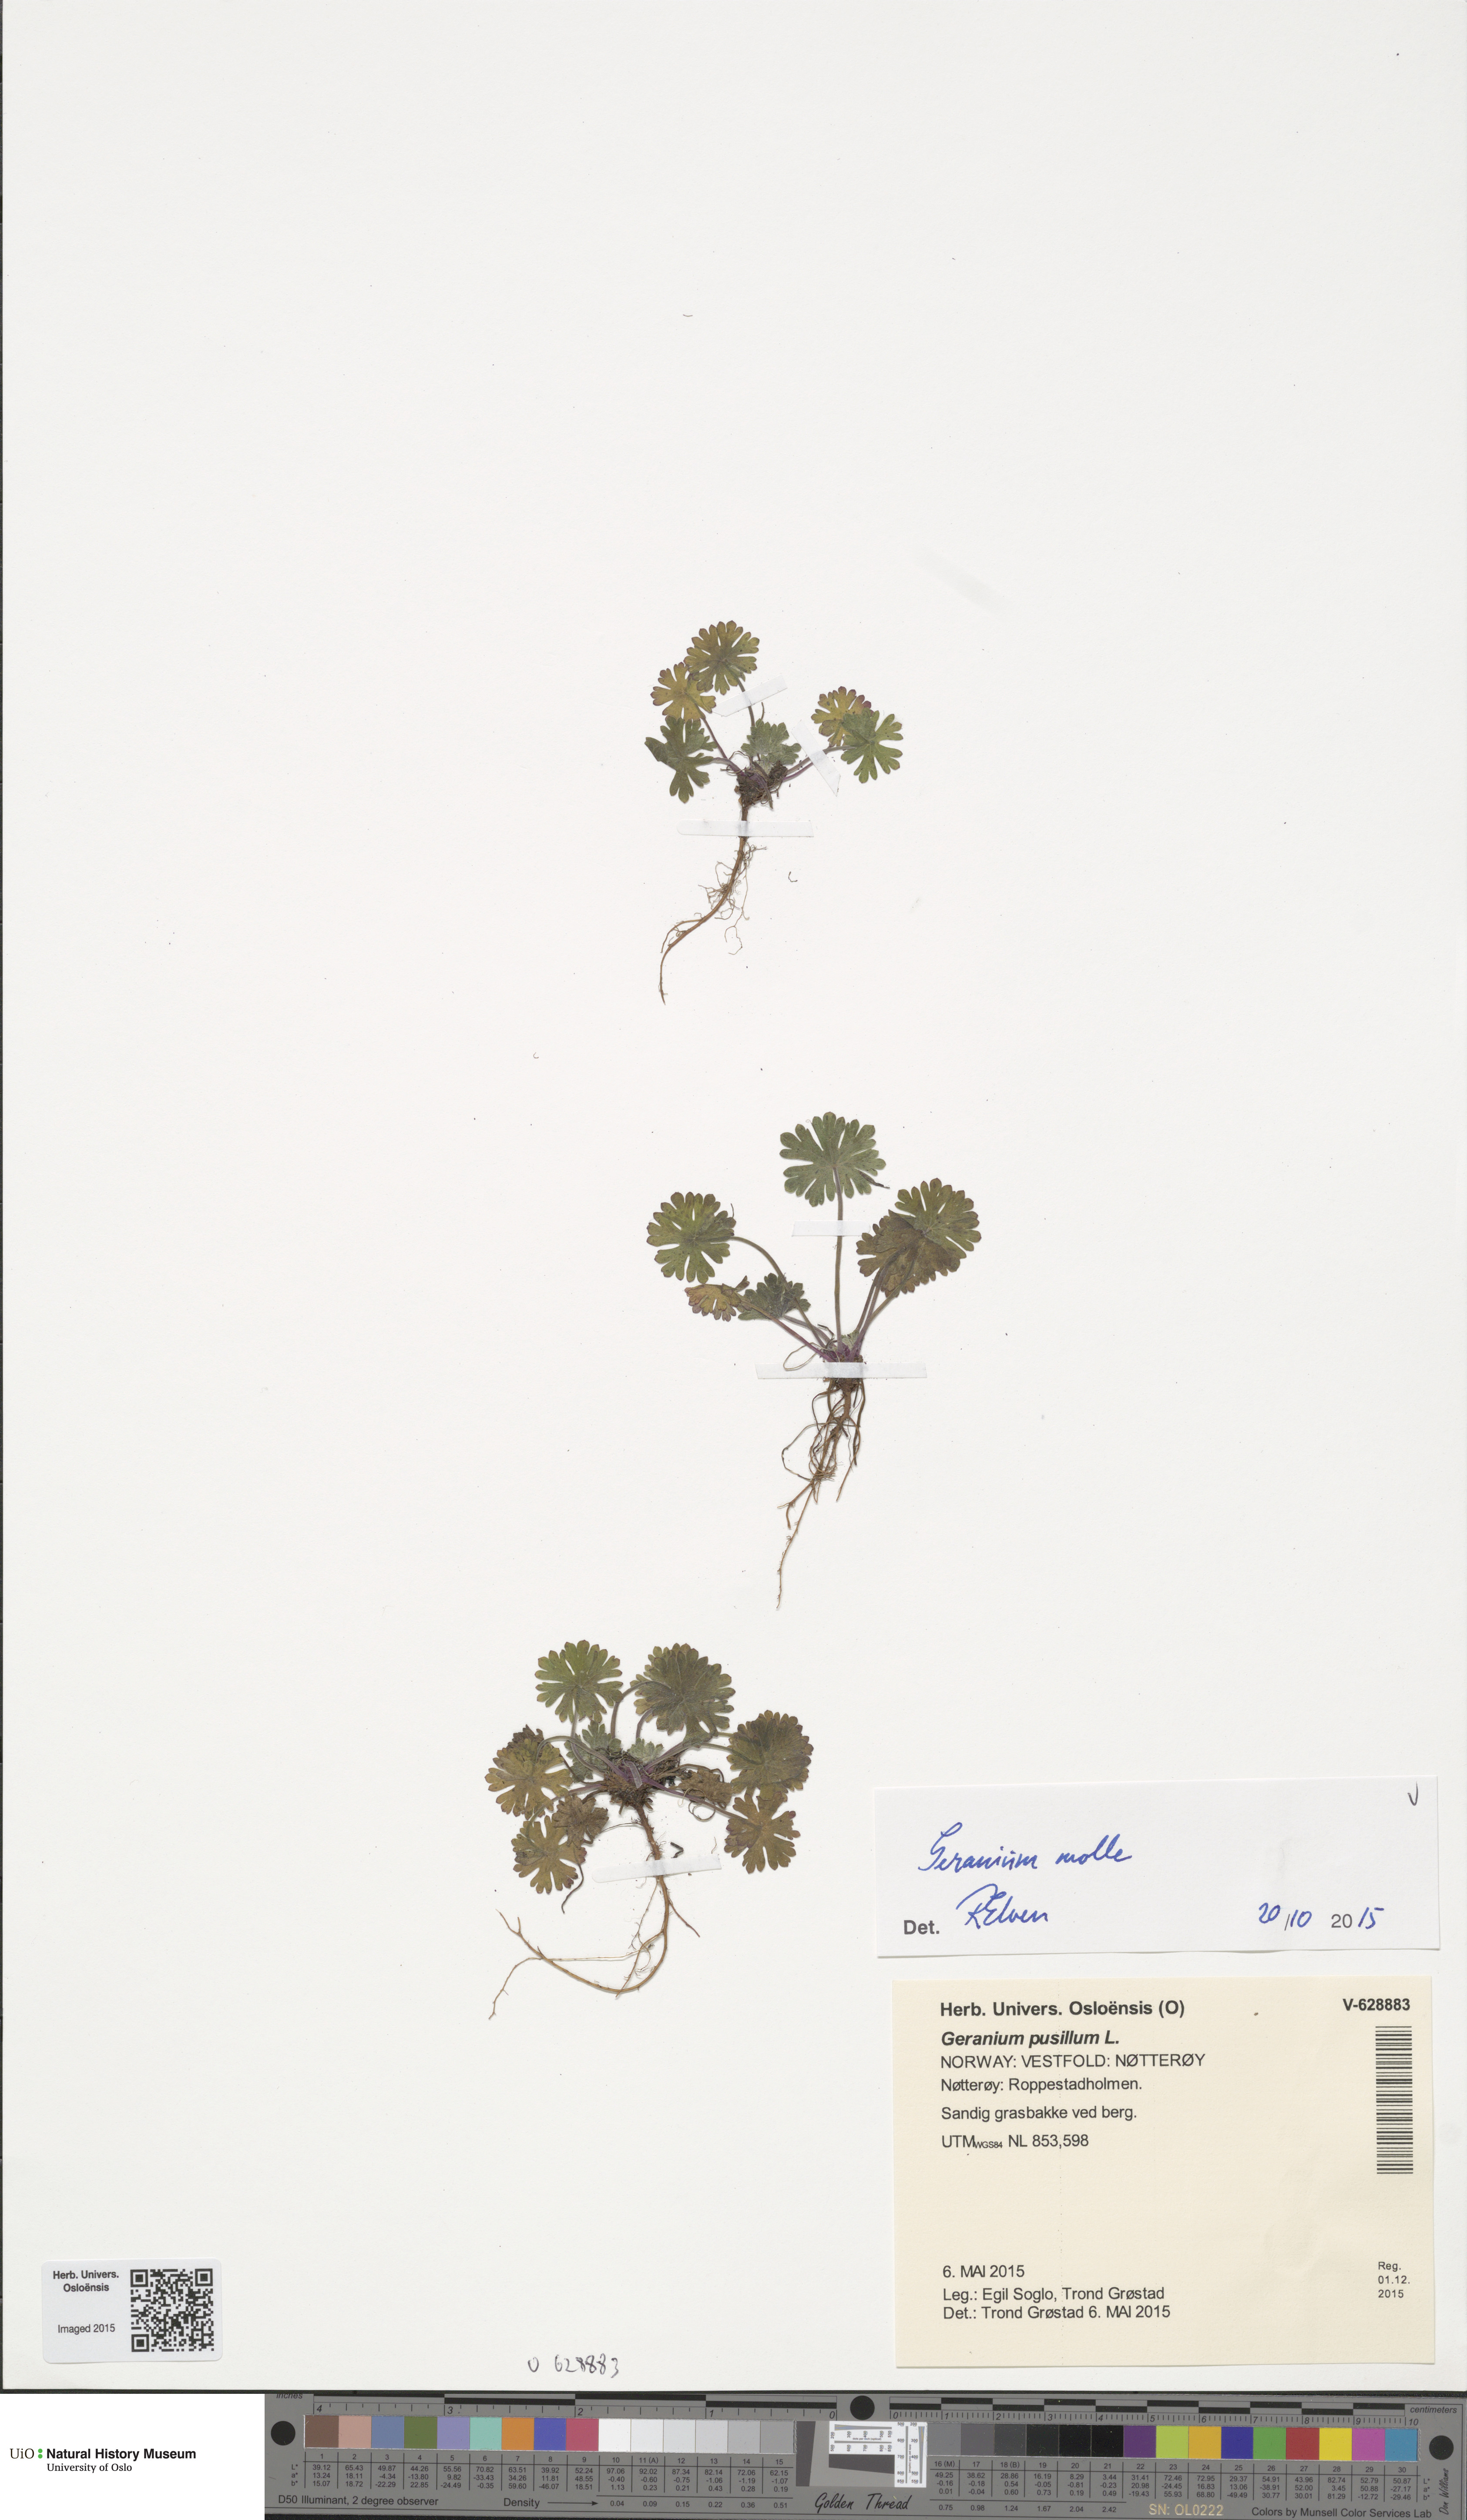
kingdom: Plantae
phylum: Tracheophyta
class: Magnoliopsida
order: Geraniales
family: Geraniaceae
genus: Geranium
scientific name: Geranium molle
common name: Dove's-foot crane's-bill
